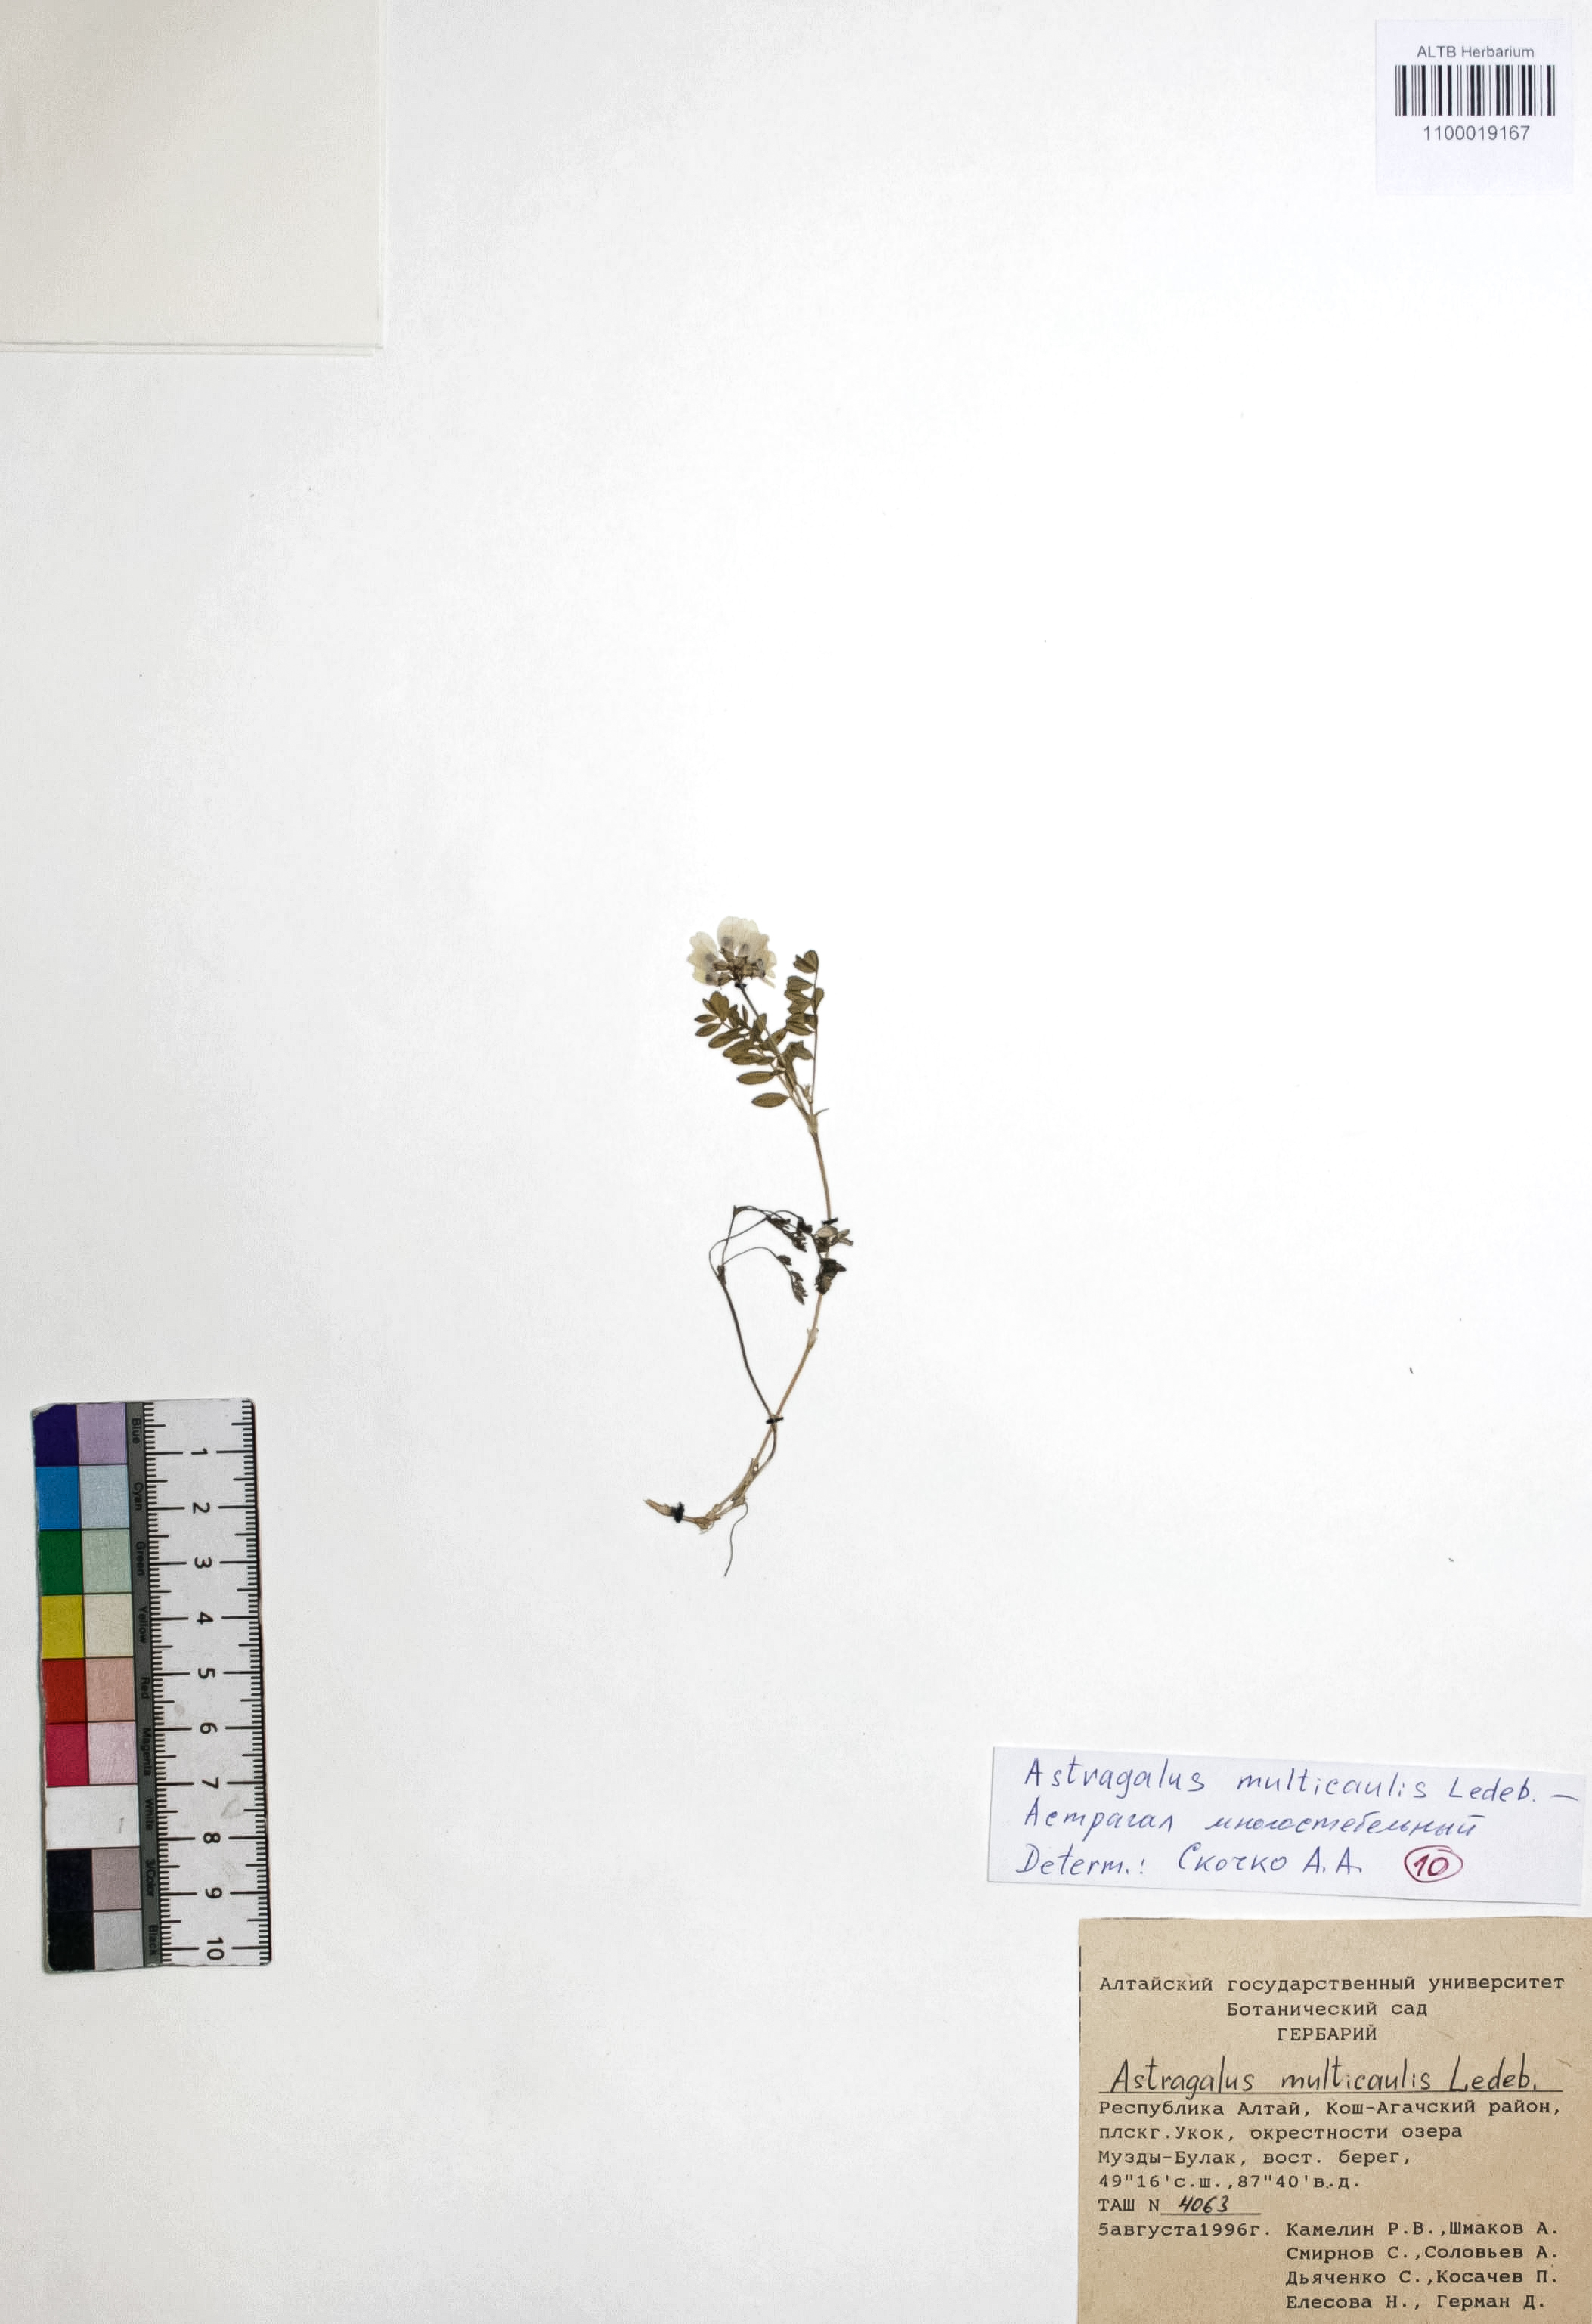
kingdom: Plantae
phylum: Tracheophyta
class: Magnoliopsida
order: Fabales
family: Fabaceae
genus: Astragalus
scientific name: Astragalus leptostachys
